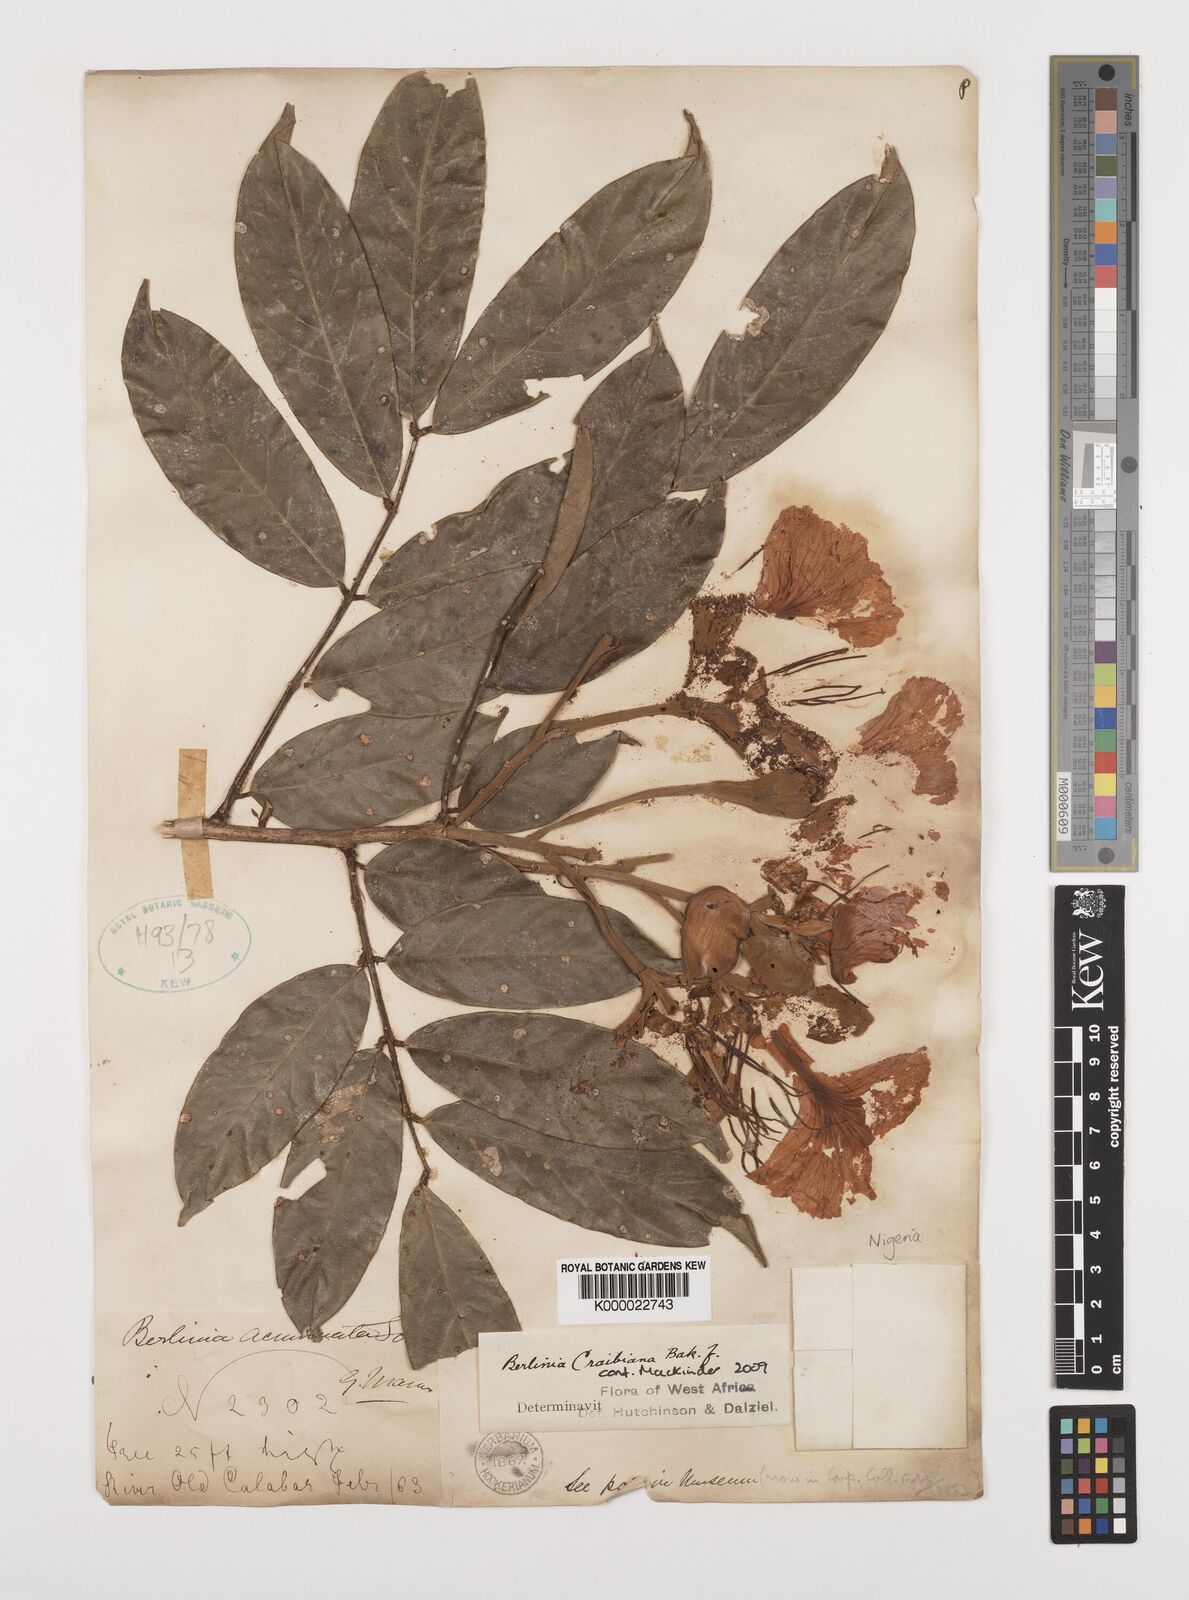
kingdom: Plantae
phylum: Tracheophyta
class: Magnoliopsida
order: Fabales
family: Fabaceae
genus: Berlinia
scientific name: Berlinia craibiana
